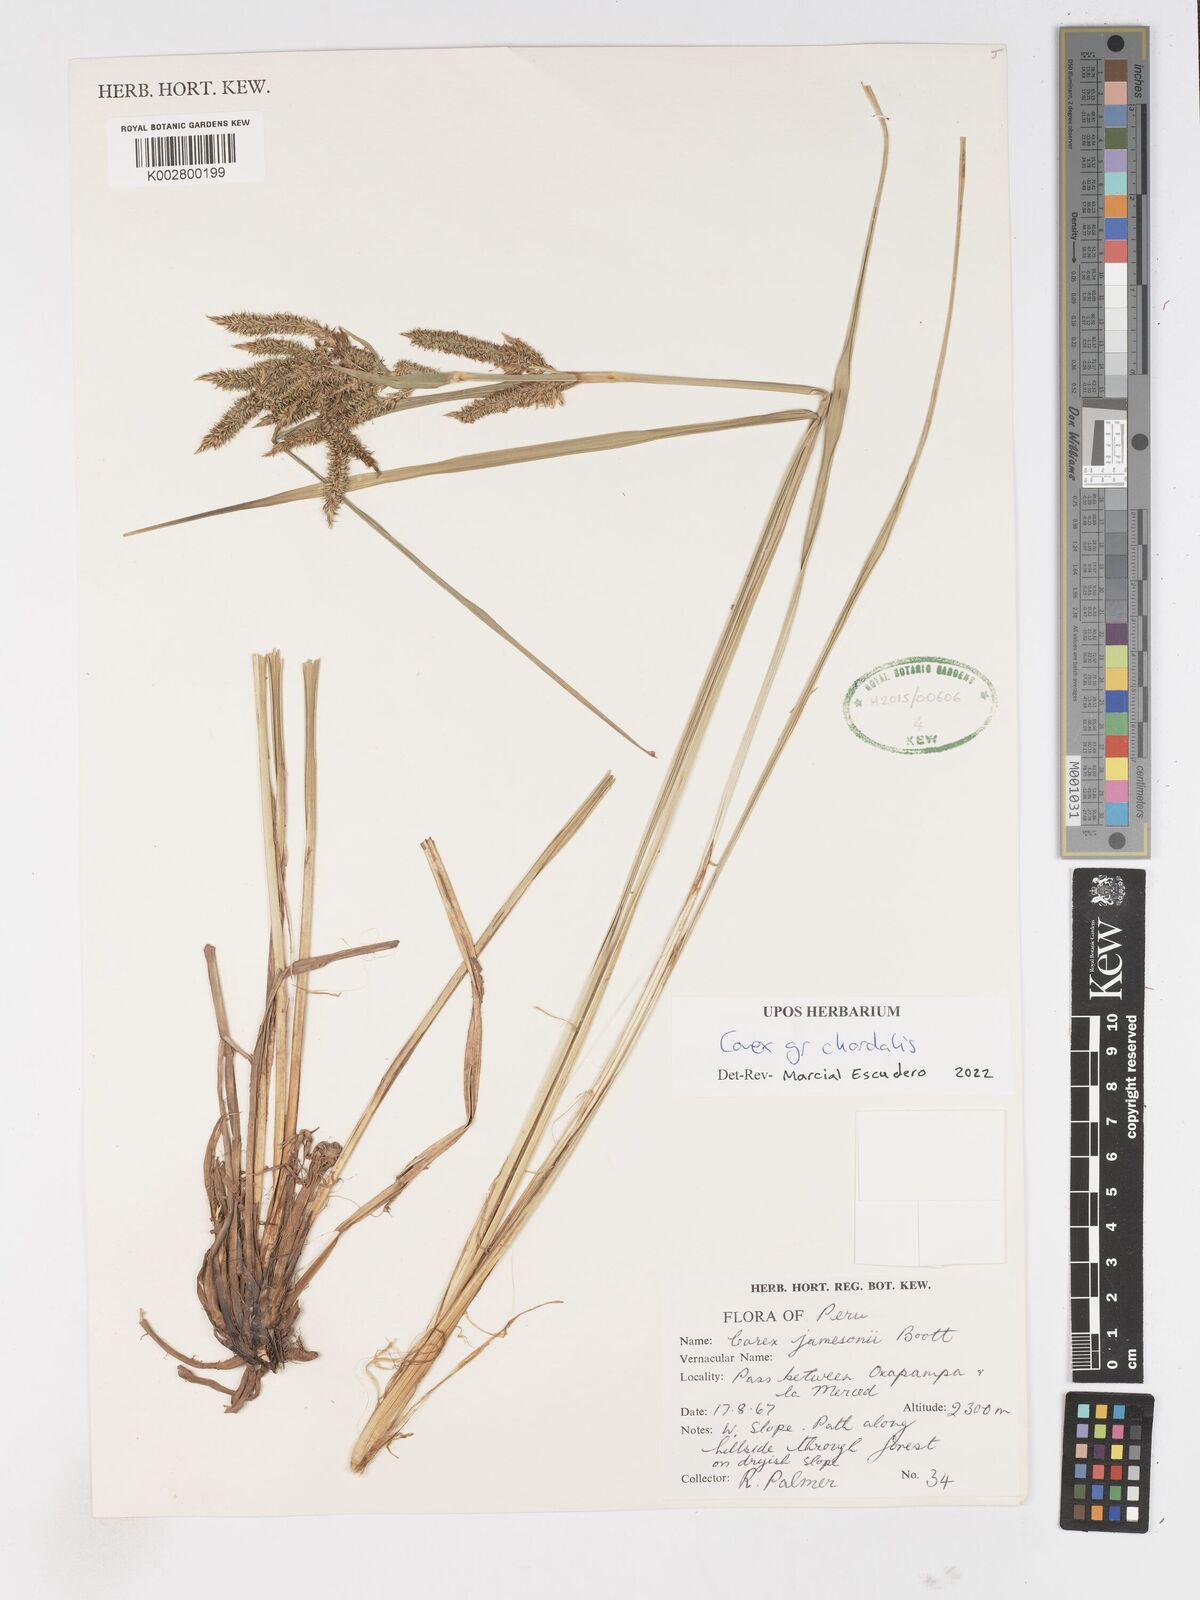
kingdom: Plantae
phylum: Tracheophyta
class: Liliopsida
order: Poales
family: Cyperaceae
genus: Carex
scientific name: Carex chordalis
